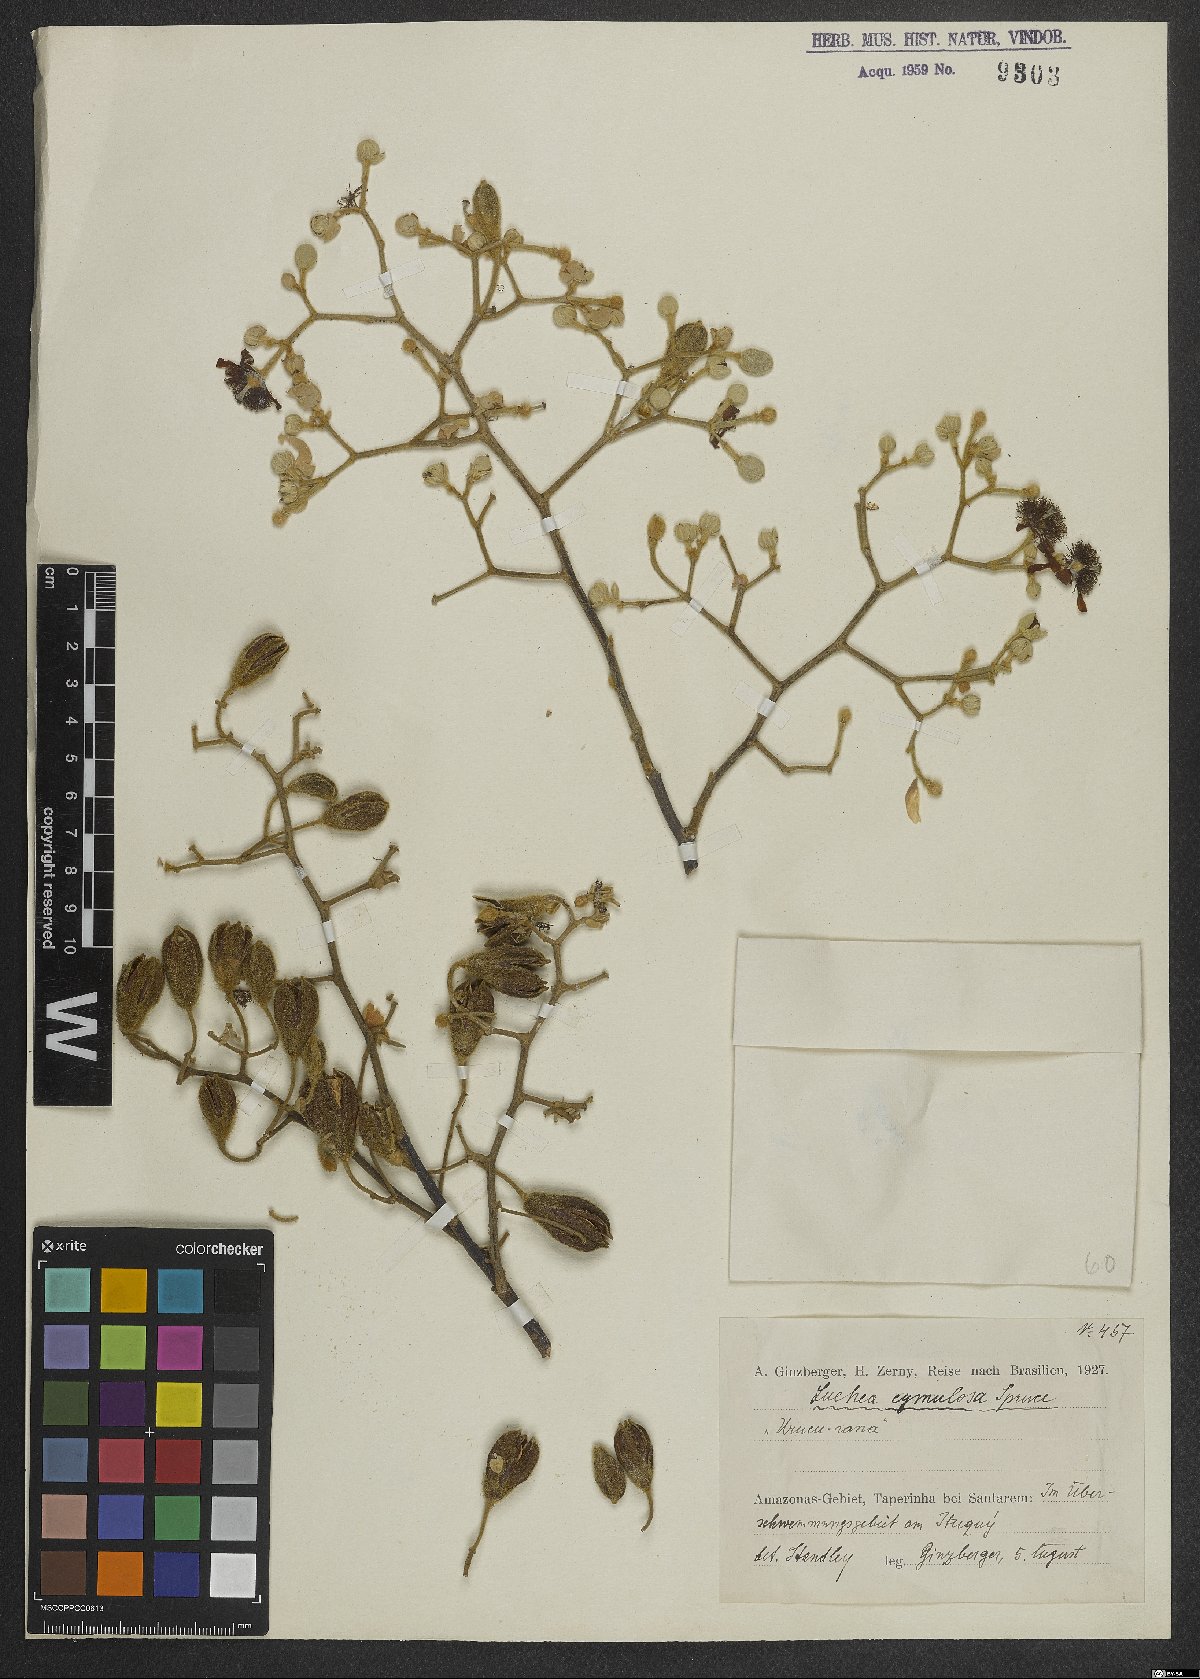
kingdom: Plantae
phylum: Tracheophyta
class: Magnoliopsida
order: Malvales
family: Malvaceae
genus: Luehea
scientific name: Luehea cymulosa
